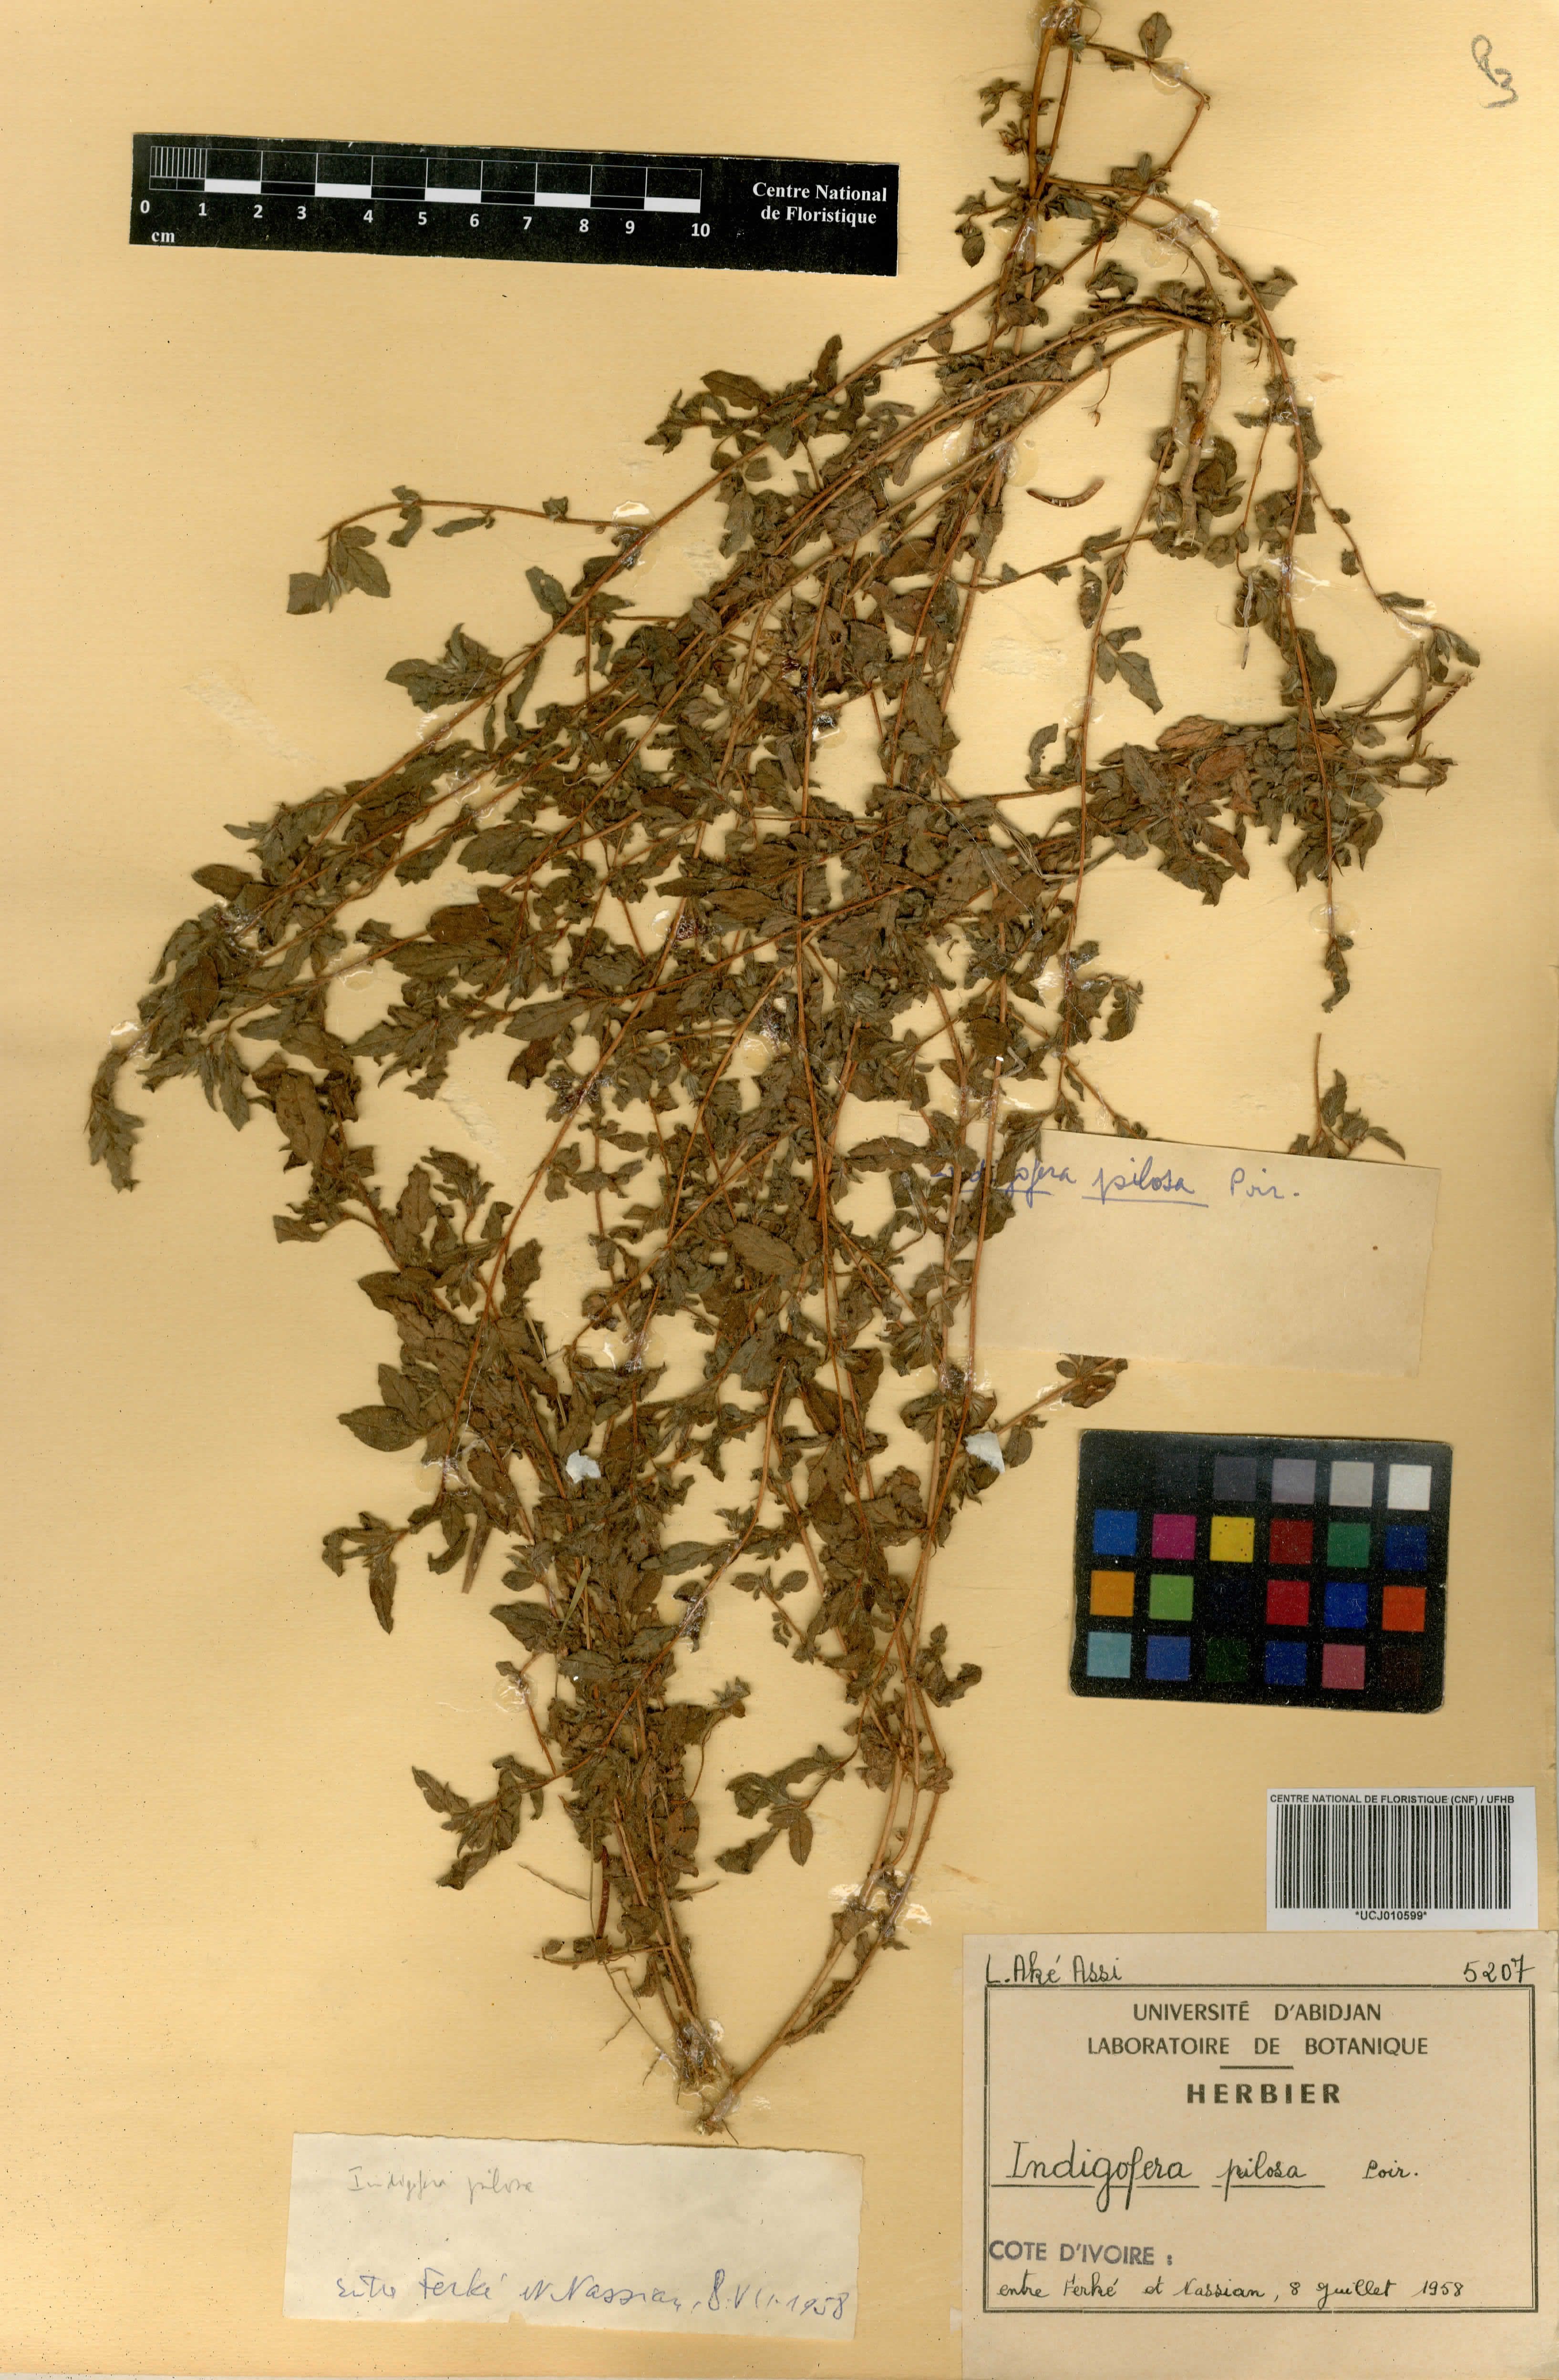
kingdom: Plantae
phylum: Tracheophyta
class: Magnoliopsida
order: Fabales
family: Fabaceae
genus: Indigofera
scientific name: Indigofera pilosa
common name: Softhairy indigo
